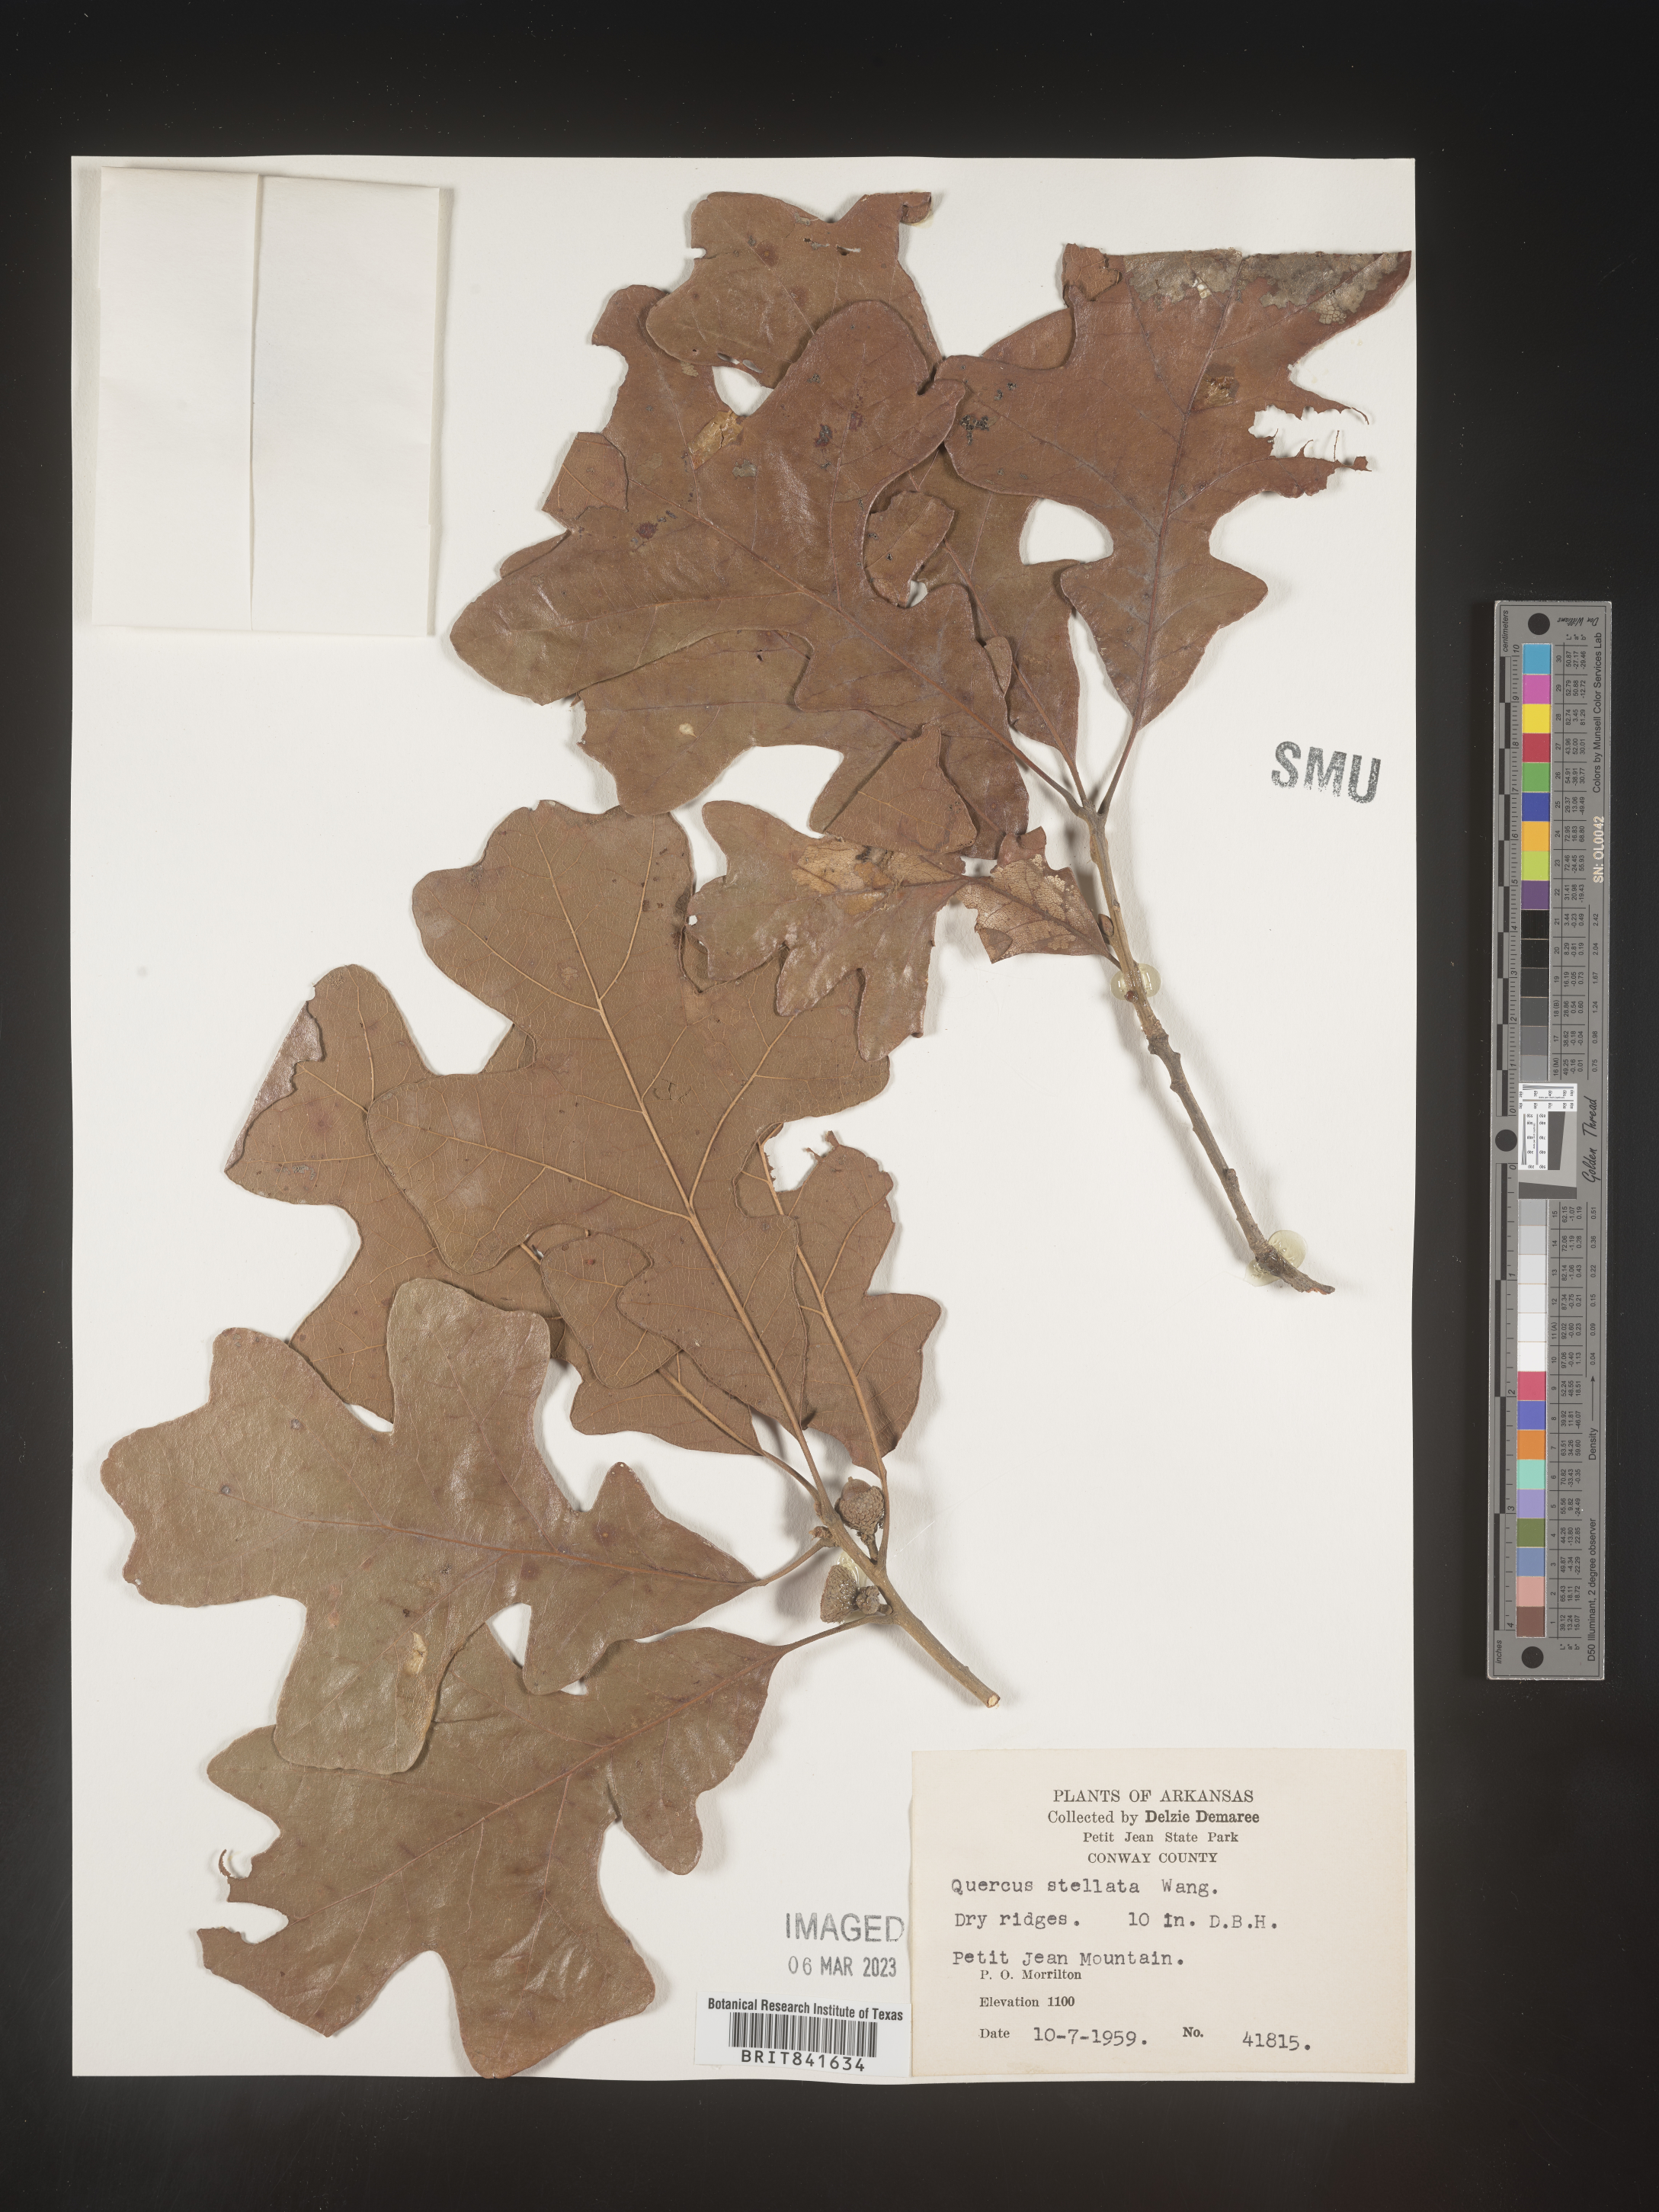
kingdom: Plantae
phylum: Tracheophyta
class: Magnoliopsida
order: Fagales
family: Fagaceae
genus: Quercus
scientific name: Quercus stellata
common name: Post oak
